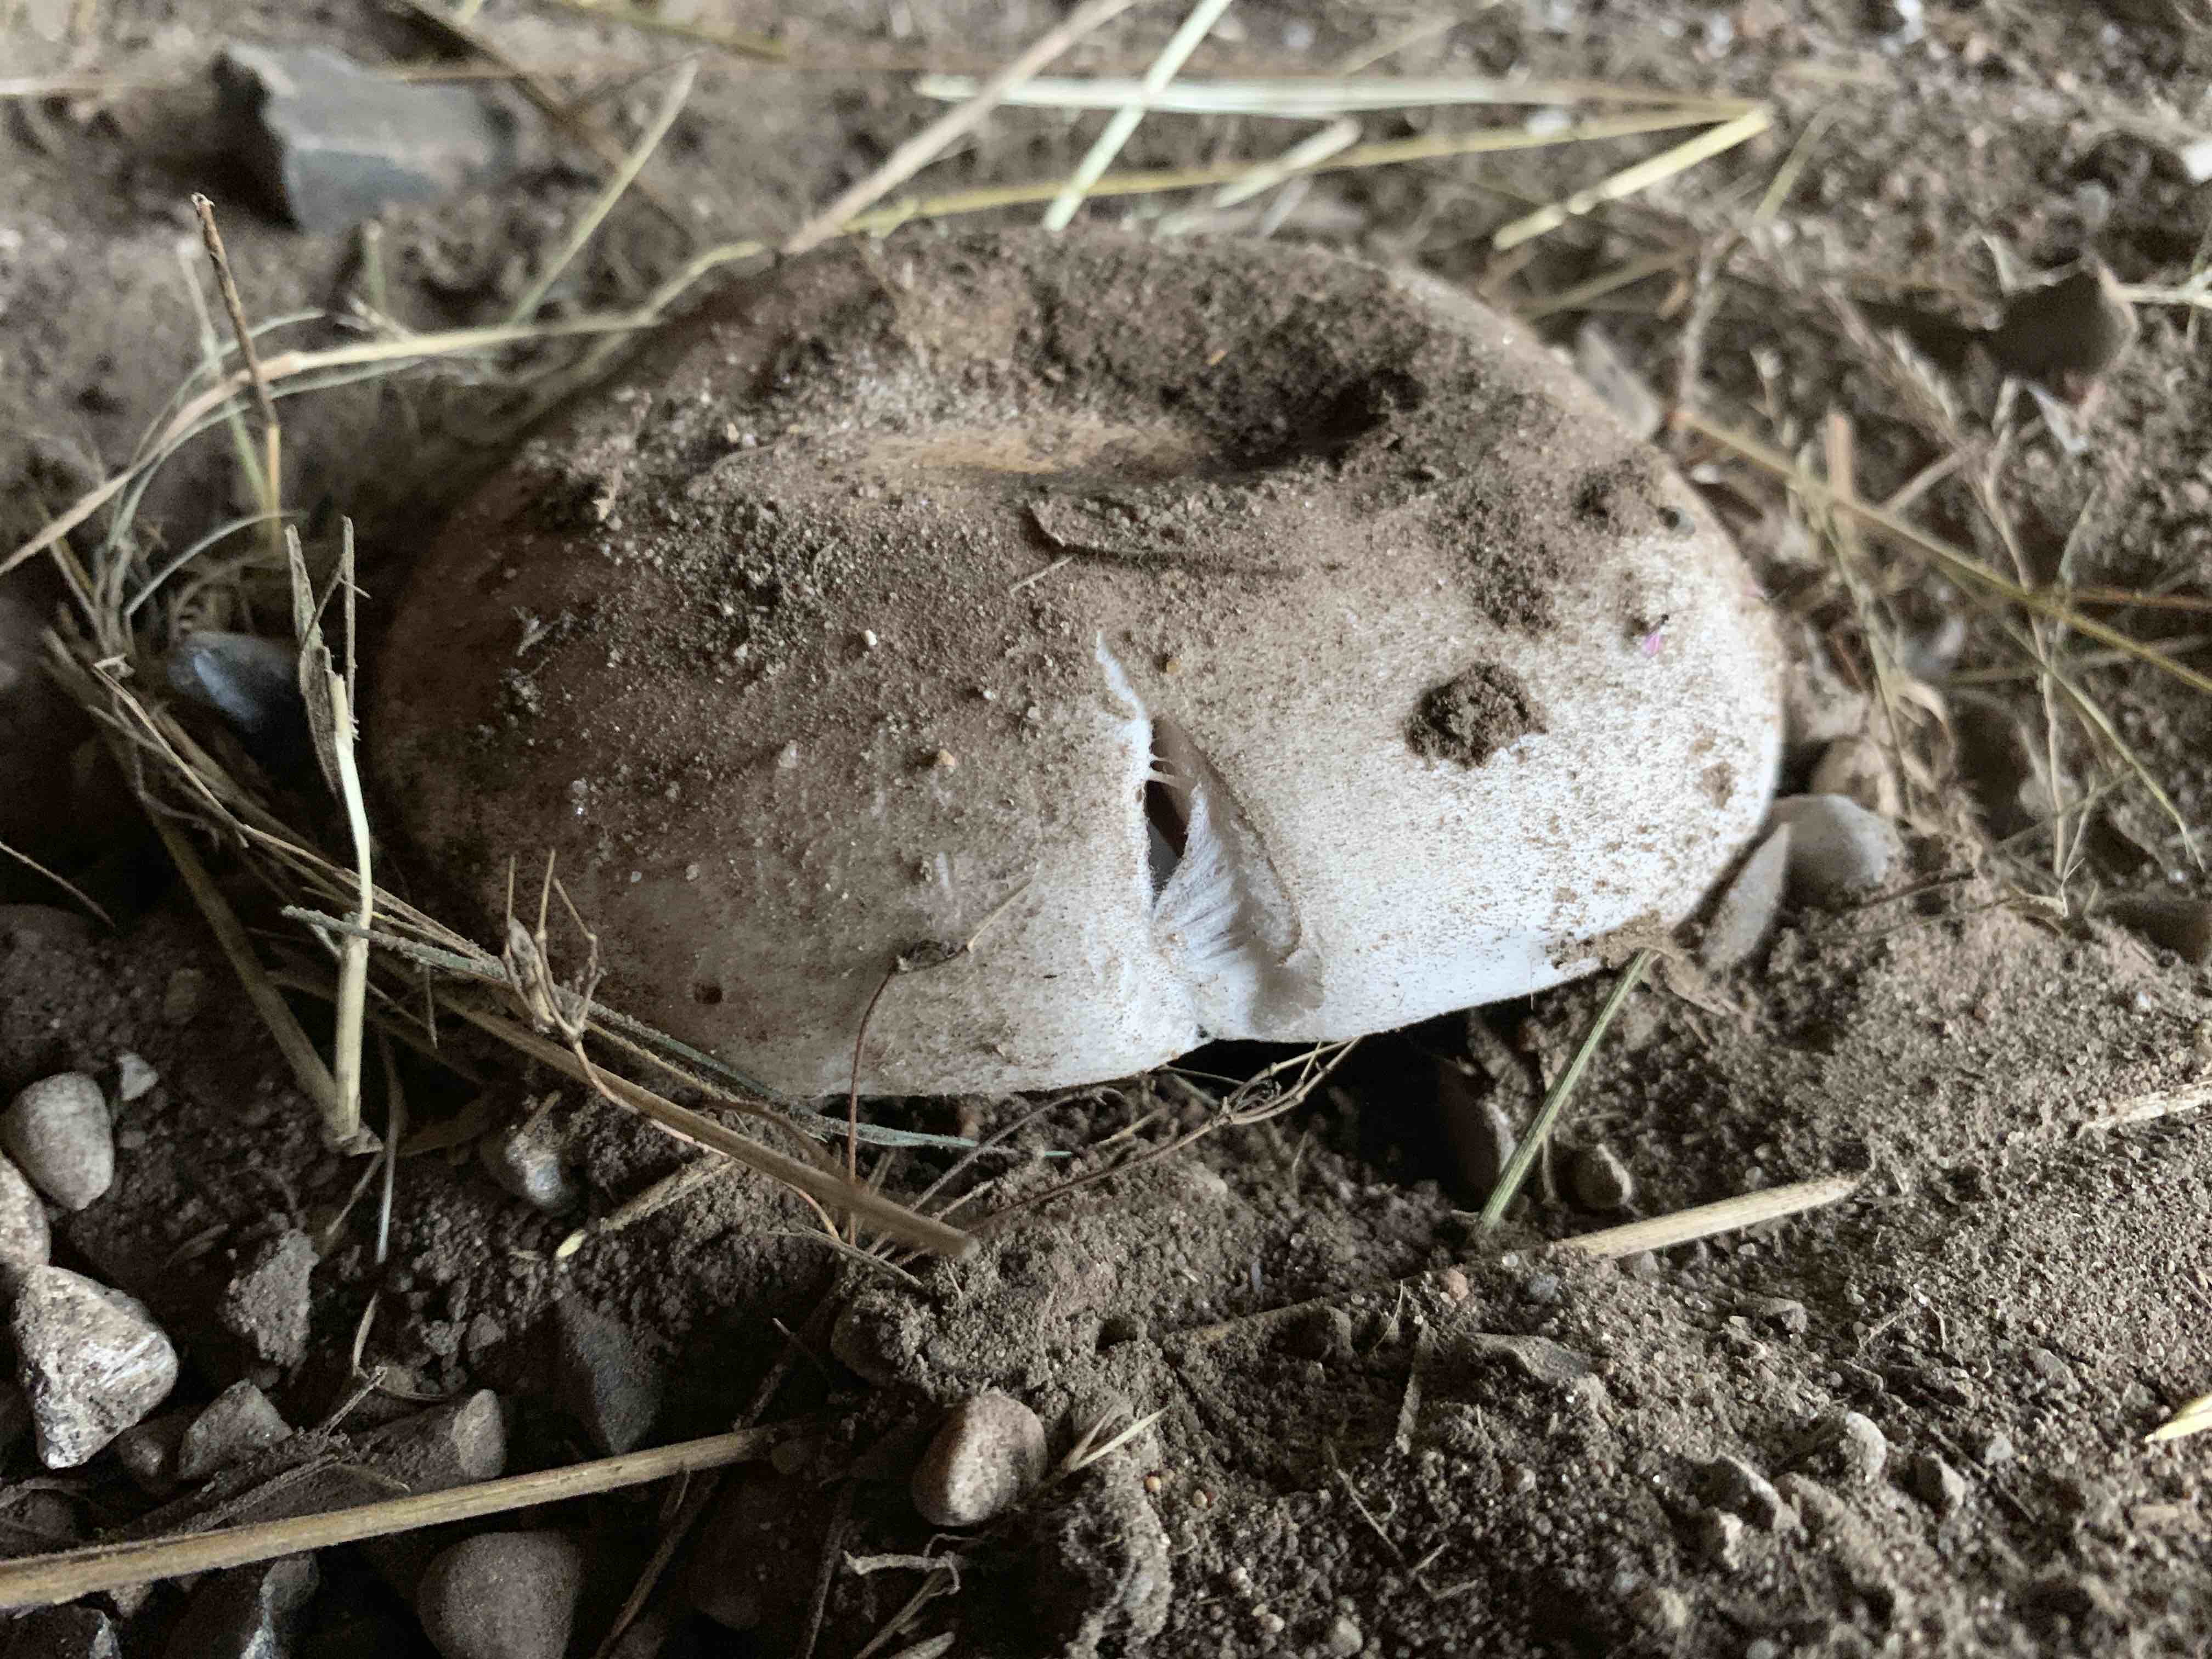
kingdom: Fungi
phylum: Basidiomycota
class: Agaricomycetes
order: Agaricales
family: Agaricaceae
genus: Agaricus
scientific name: Agaricus bitorquis
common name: vej-champignon
